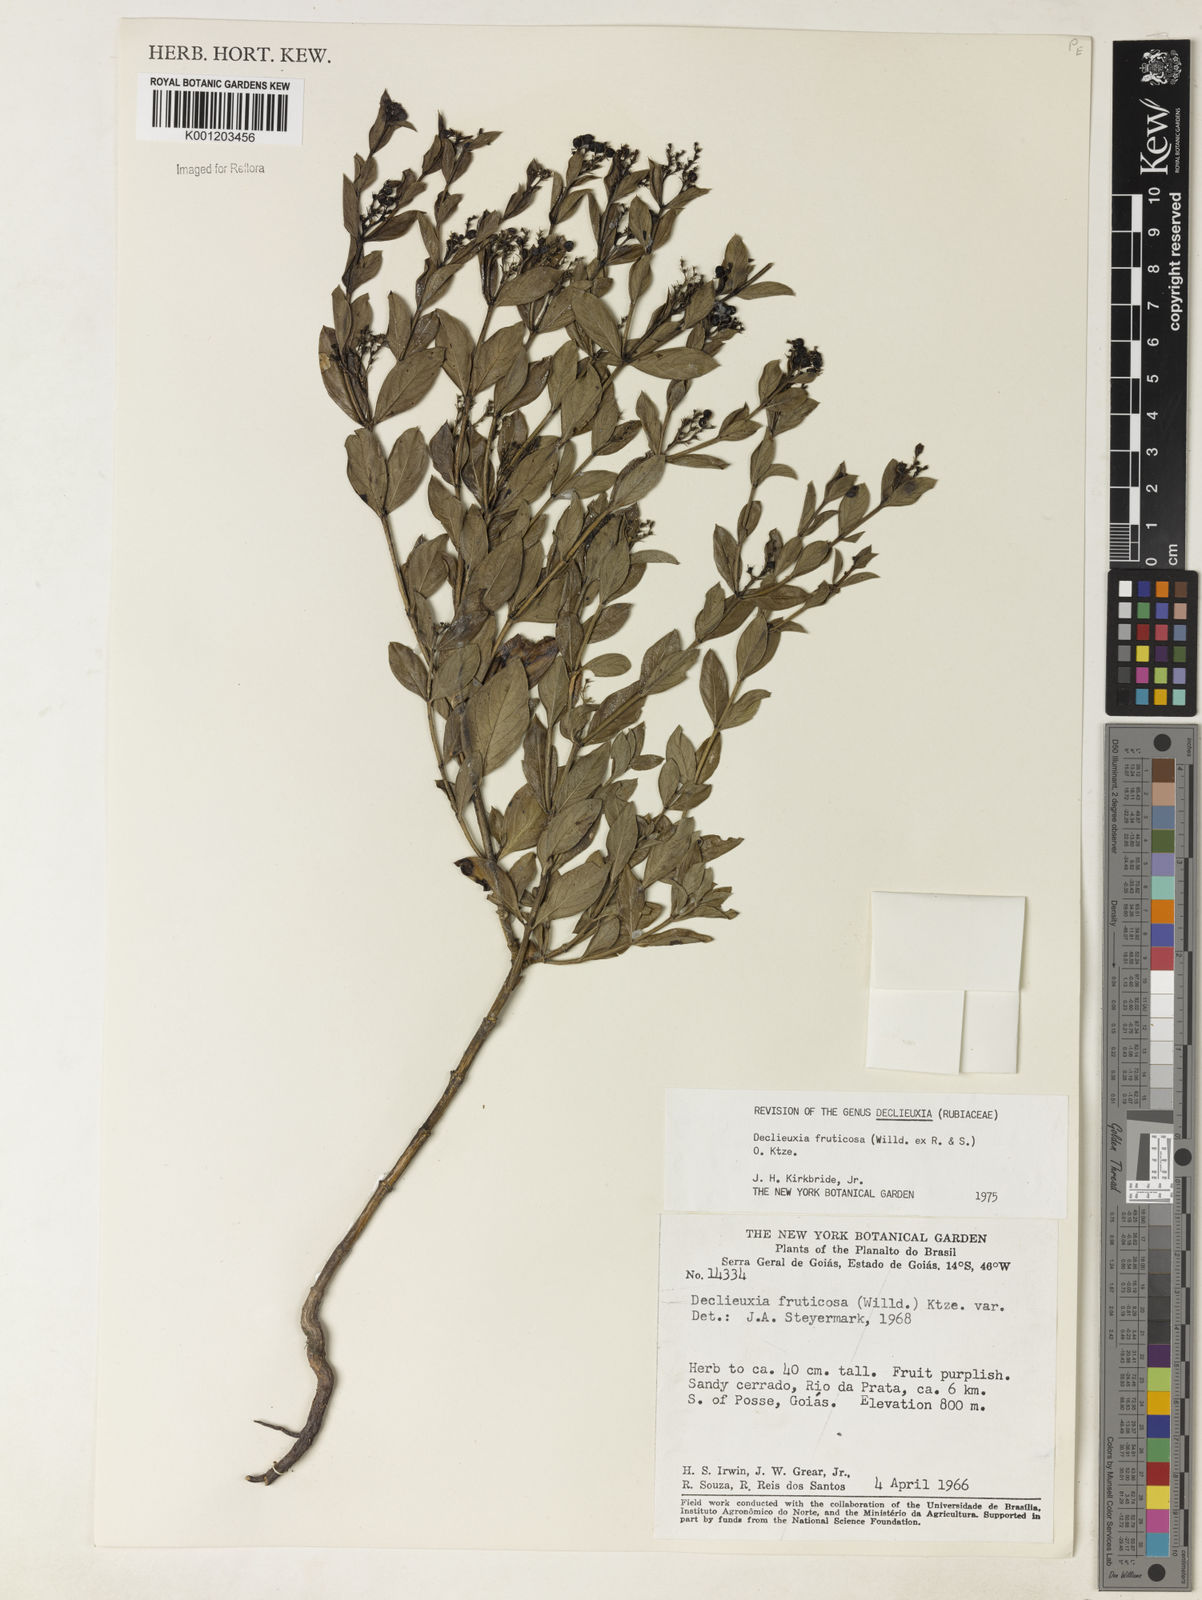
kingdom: Plantae
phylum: Tracheophyta
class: Magnoliopsida
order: Gentianales
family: Rubiaceae
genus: Declieuxia
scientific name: Declieuxia fruticosa
